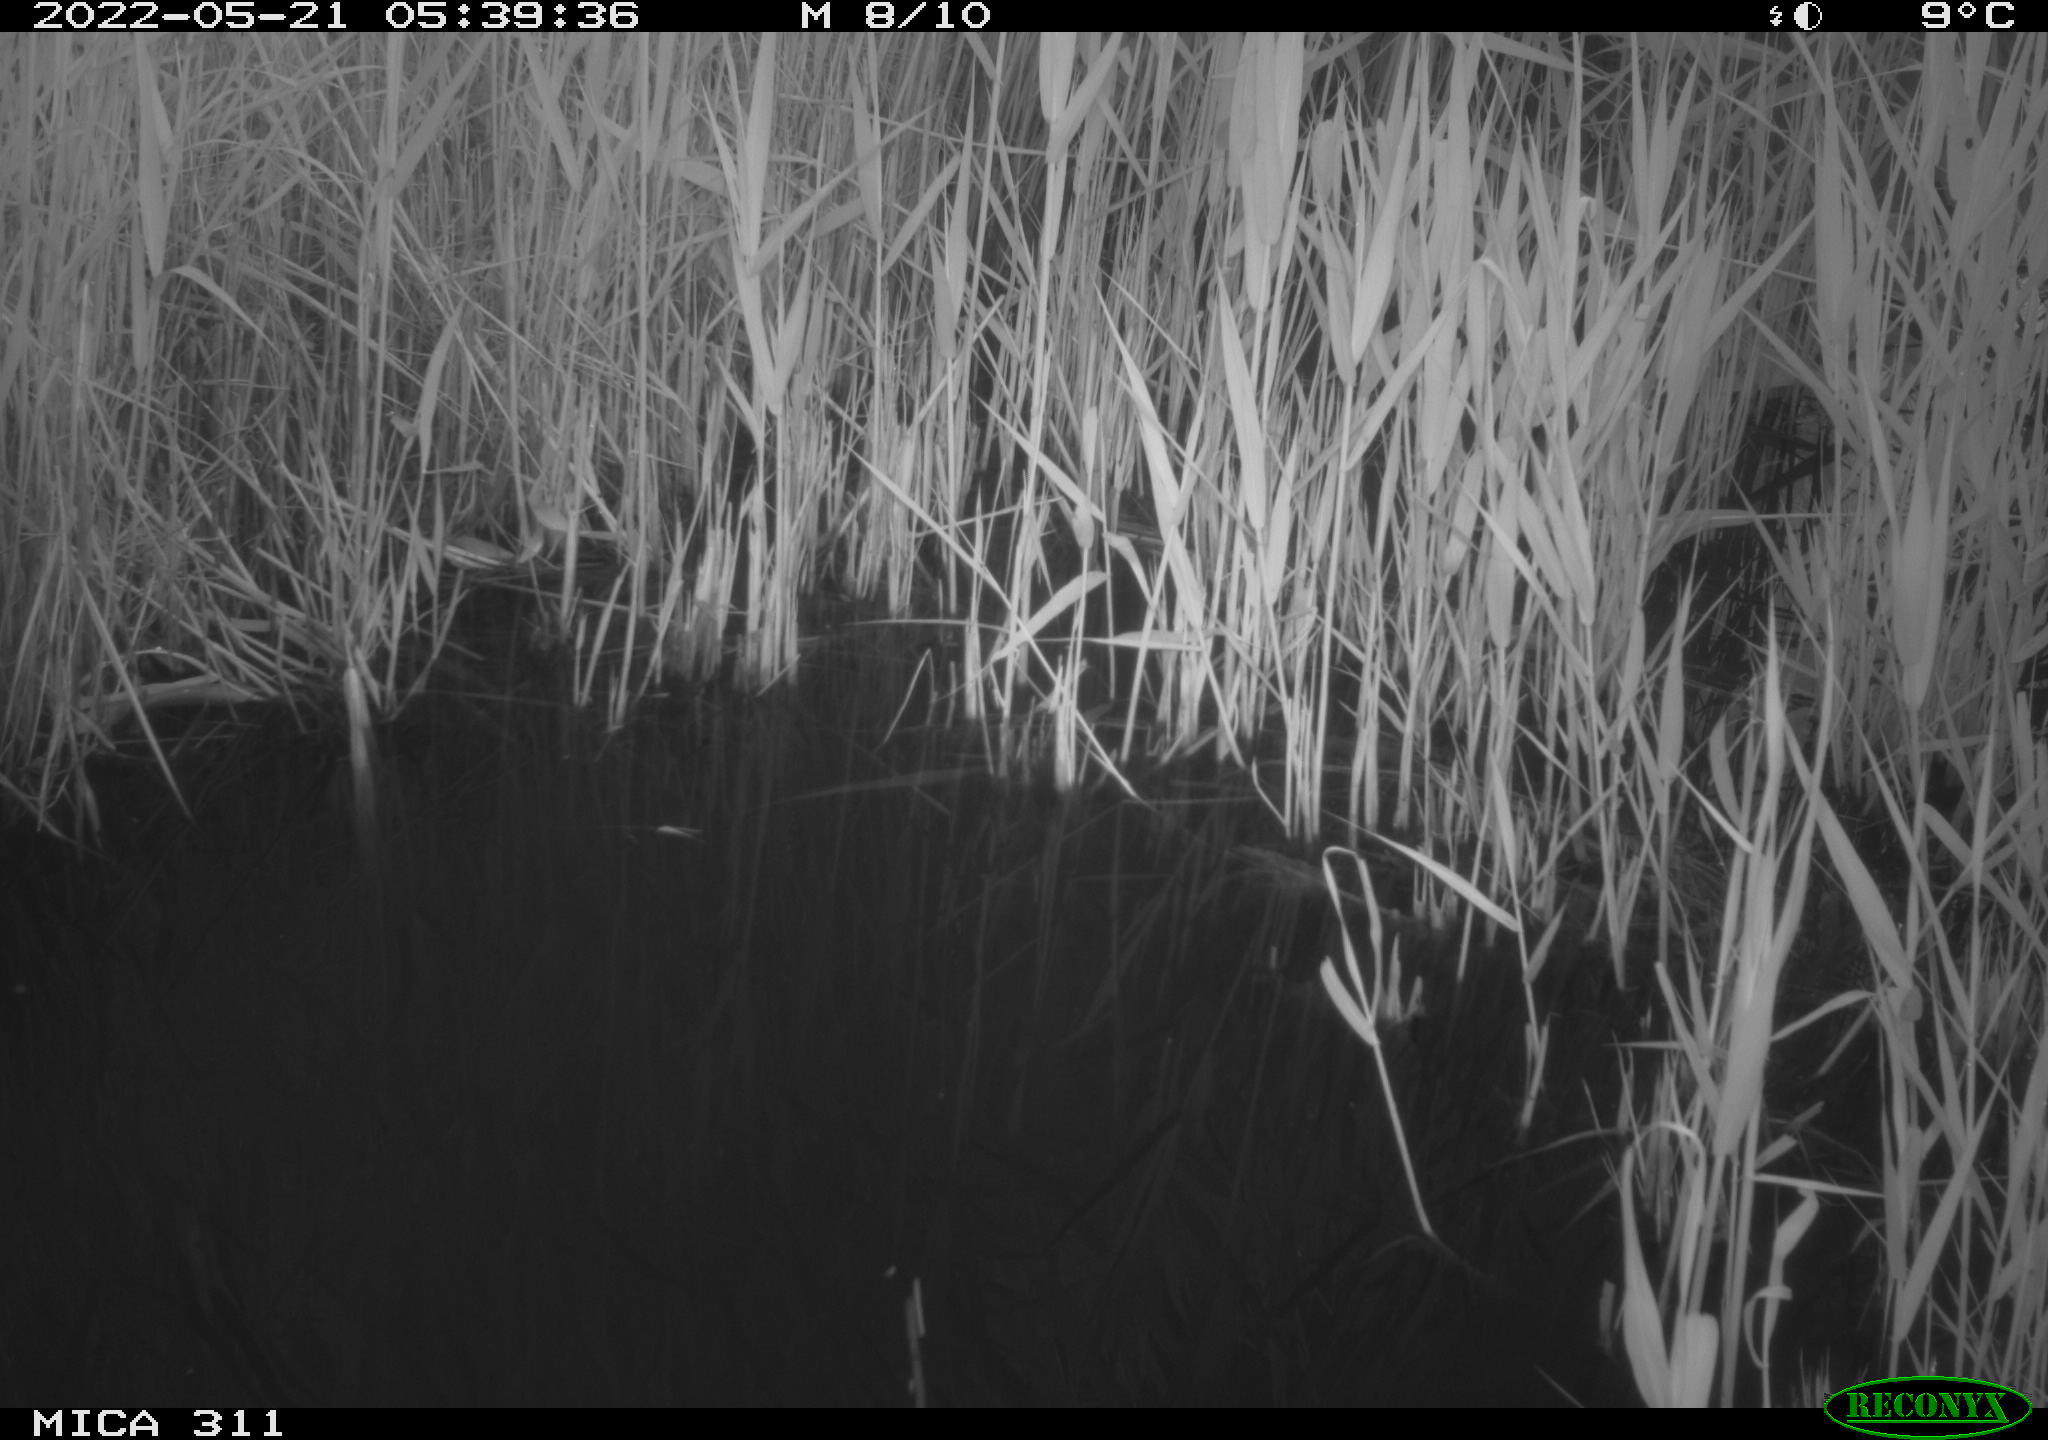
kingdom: Animalia
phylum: Chordata
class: Aves
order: Gruiformes
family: Rallidae
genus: Gallinula
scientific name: Gallinula chloropus
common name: Common moorhen
